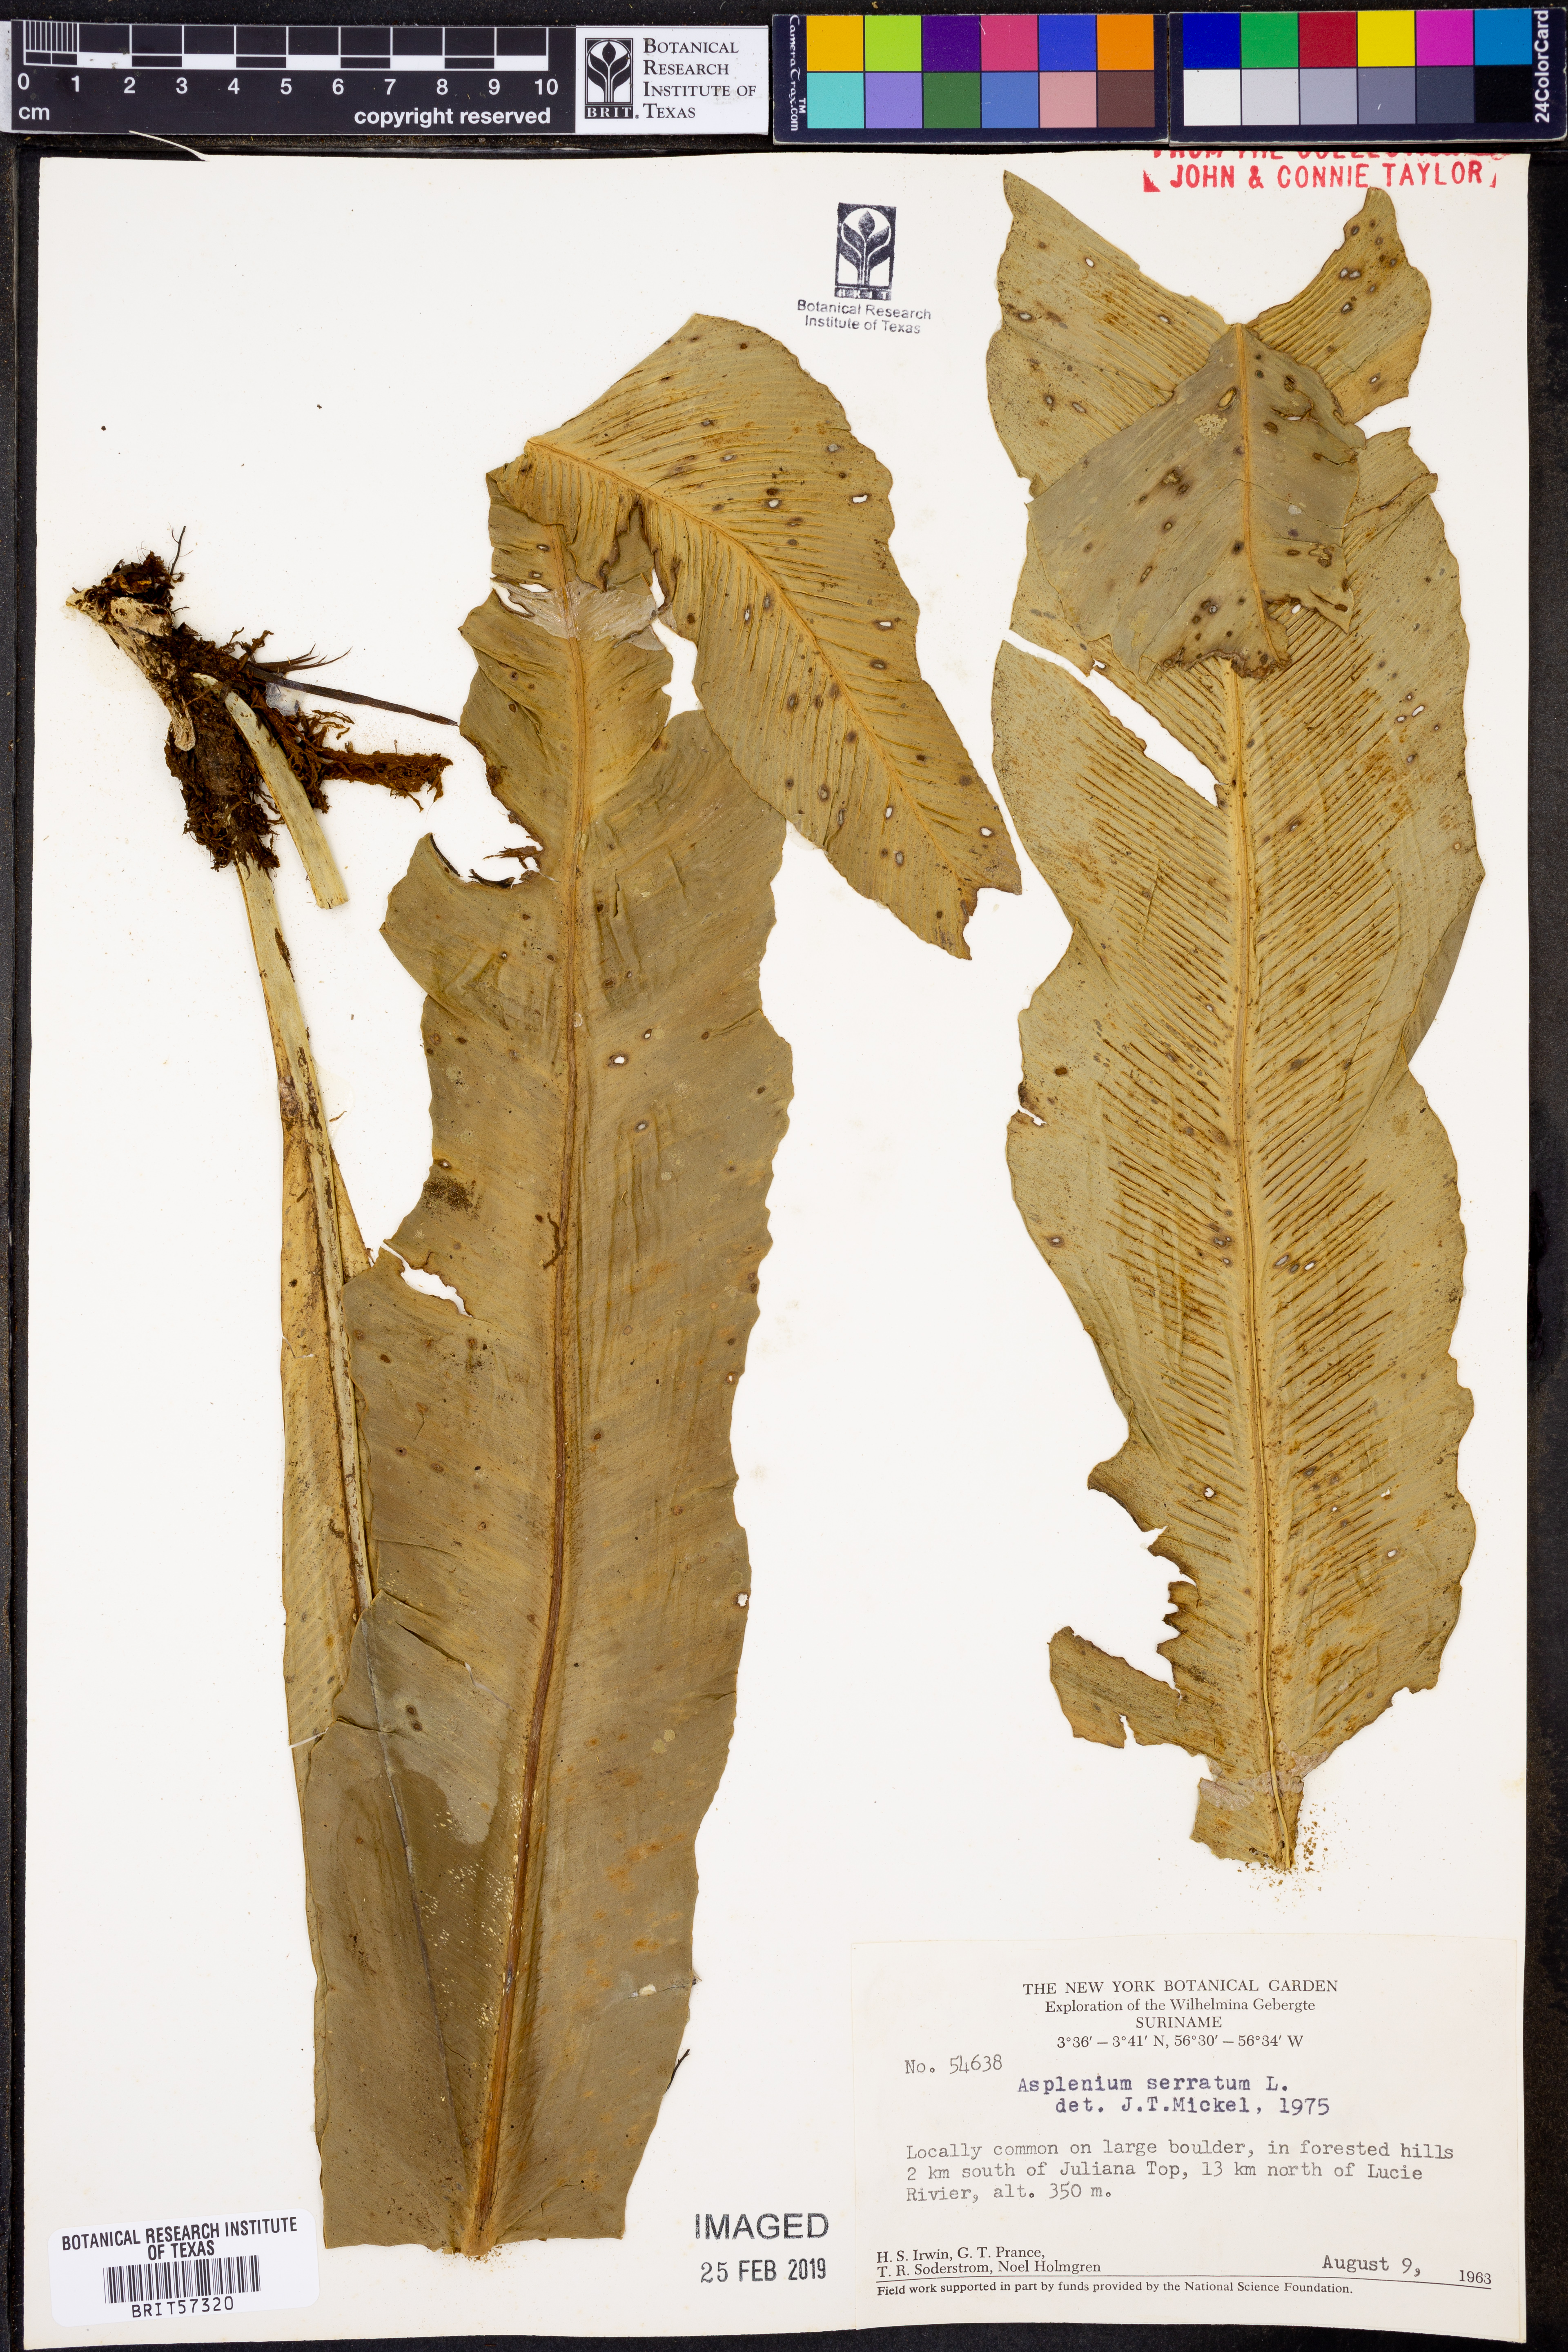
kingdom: Plantae
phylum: Tracheophyta
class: Polypodiopsida
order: Polypodiales
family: Aspleniaceae
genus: Asplenium
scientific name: Asplenium serratum
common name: Wild birdnest fern
